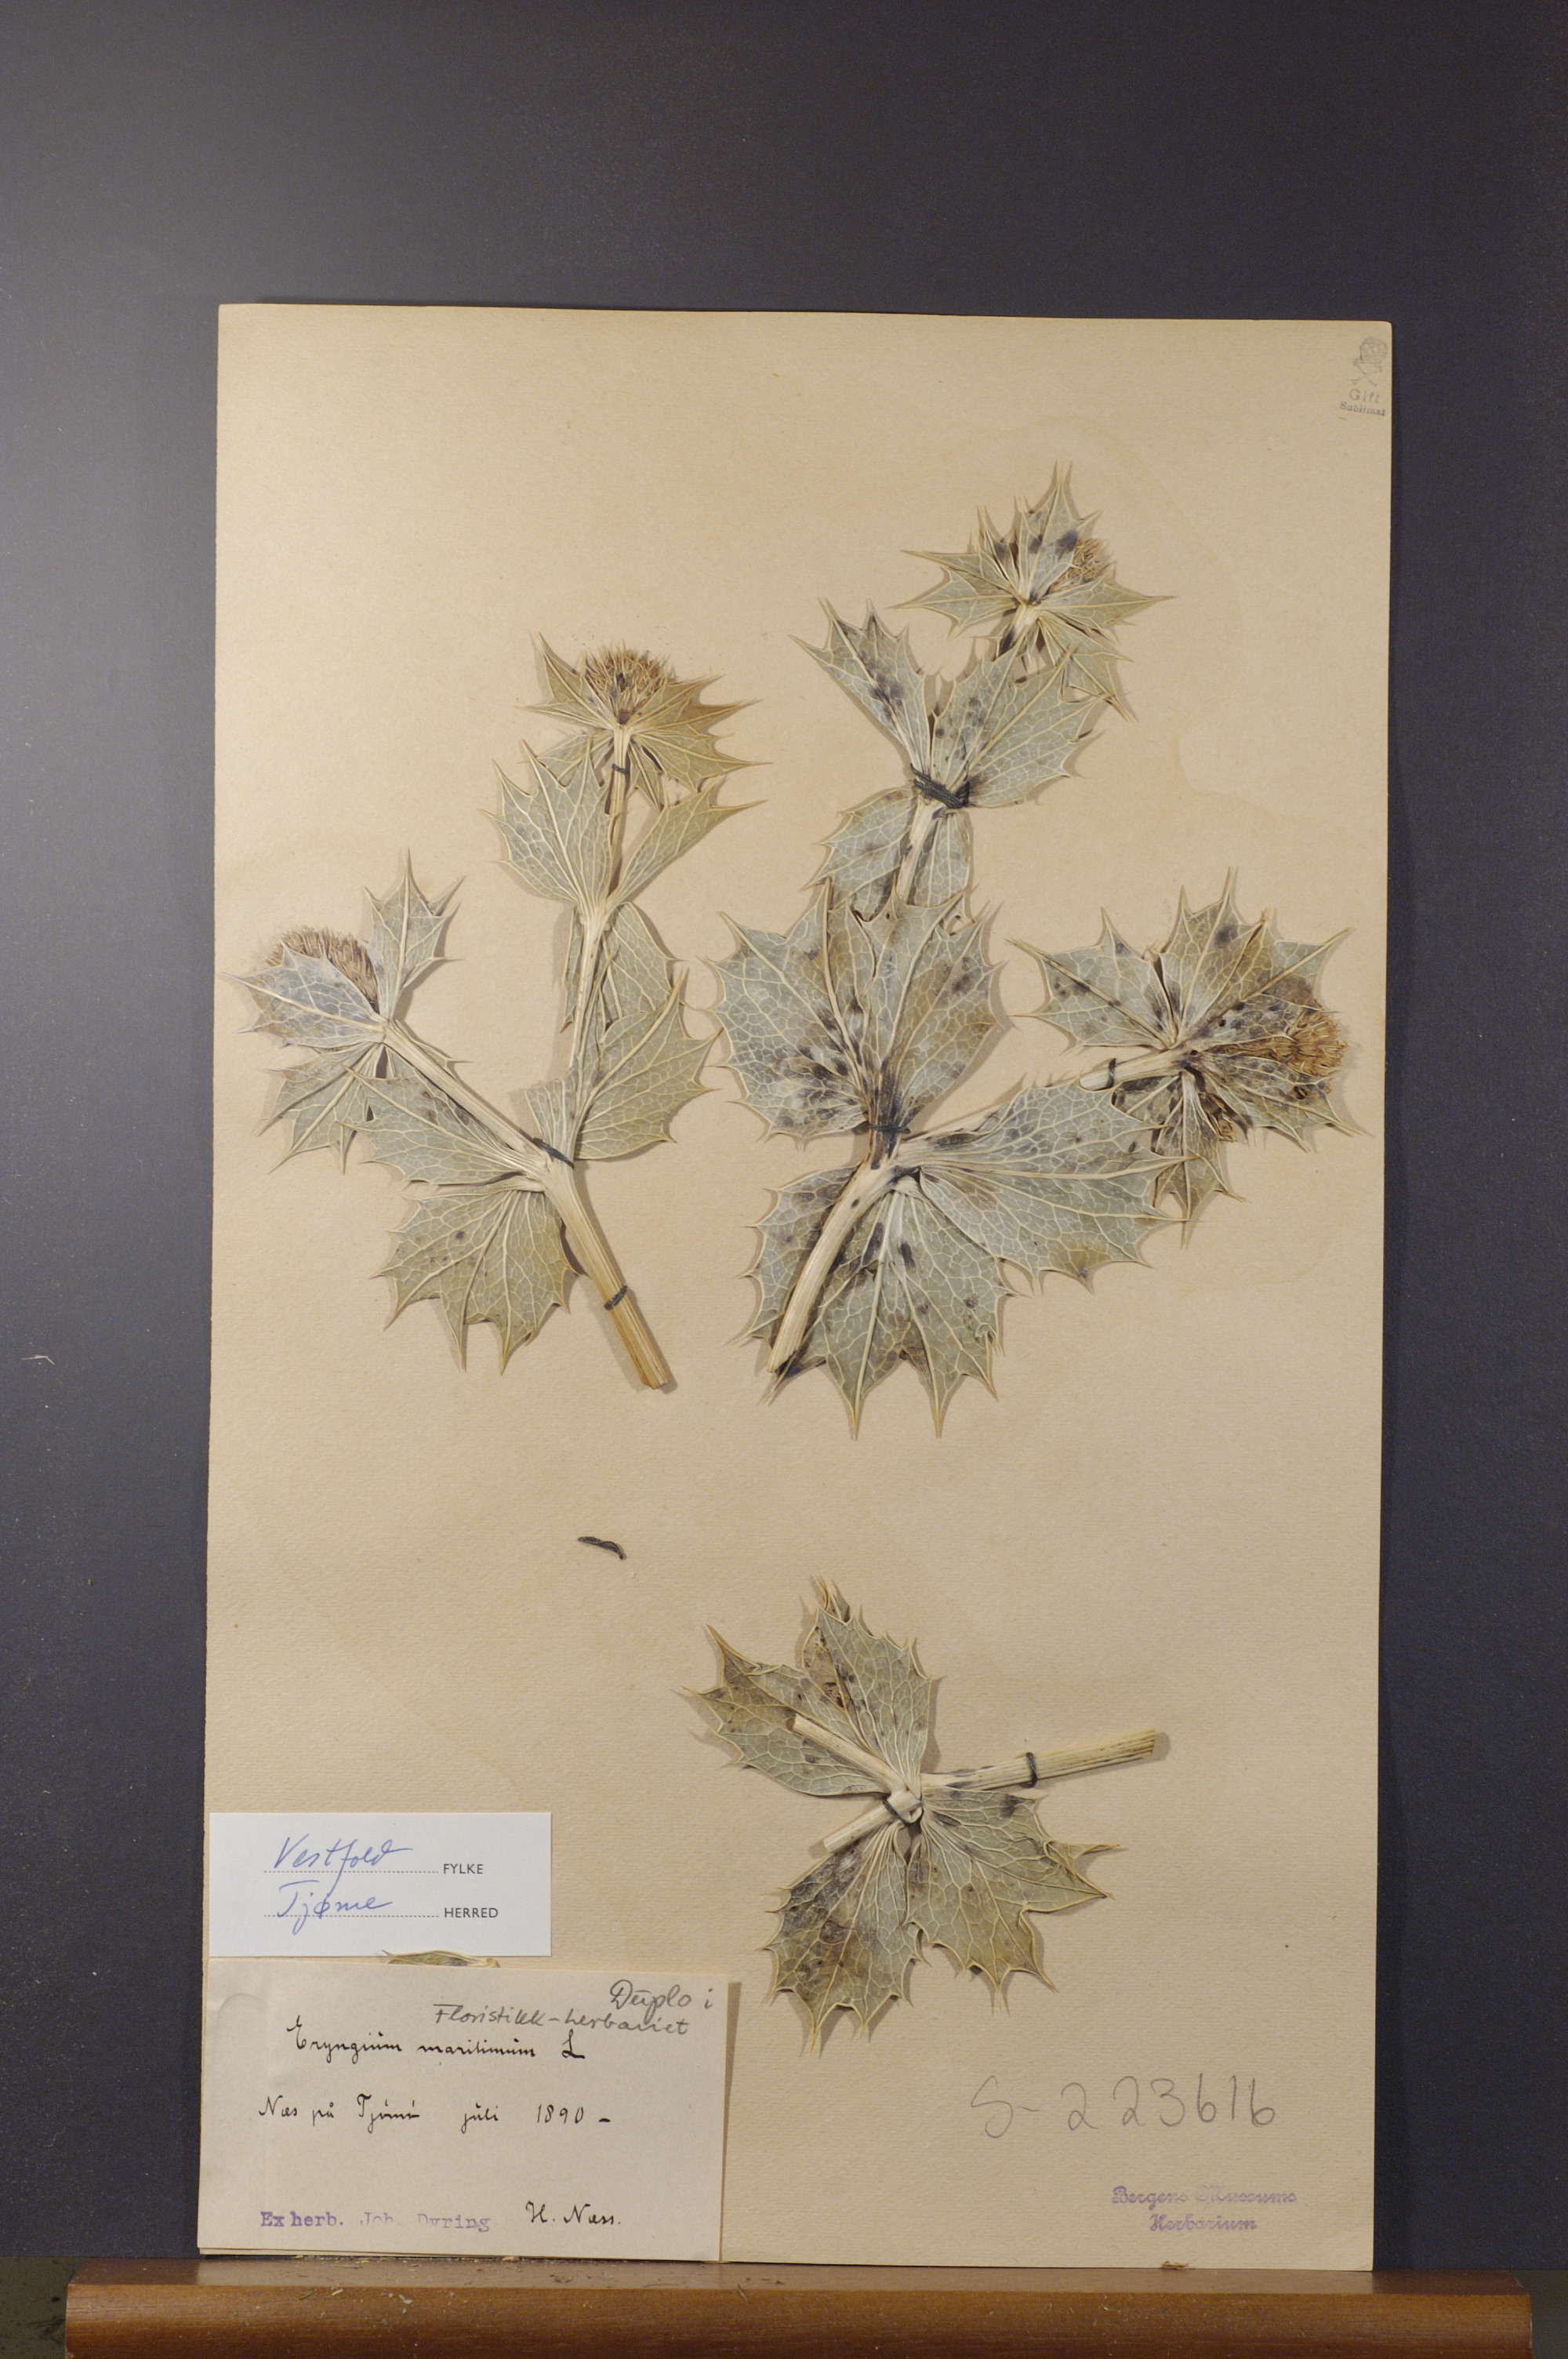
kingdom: Plantae
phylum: Tracheophyta
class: Magnoliopsida
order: Apiales
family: Apiaceae
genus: Eryngium
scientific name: Eryngium maritimum
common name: Sea-holly
